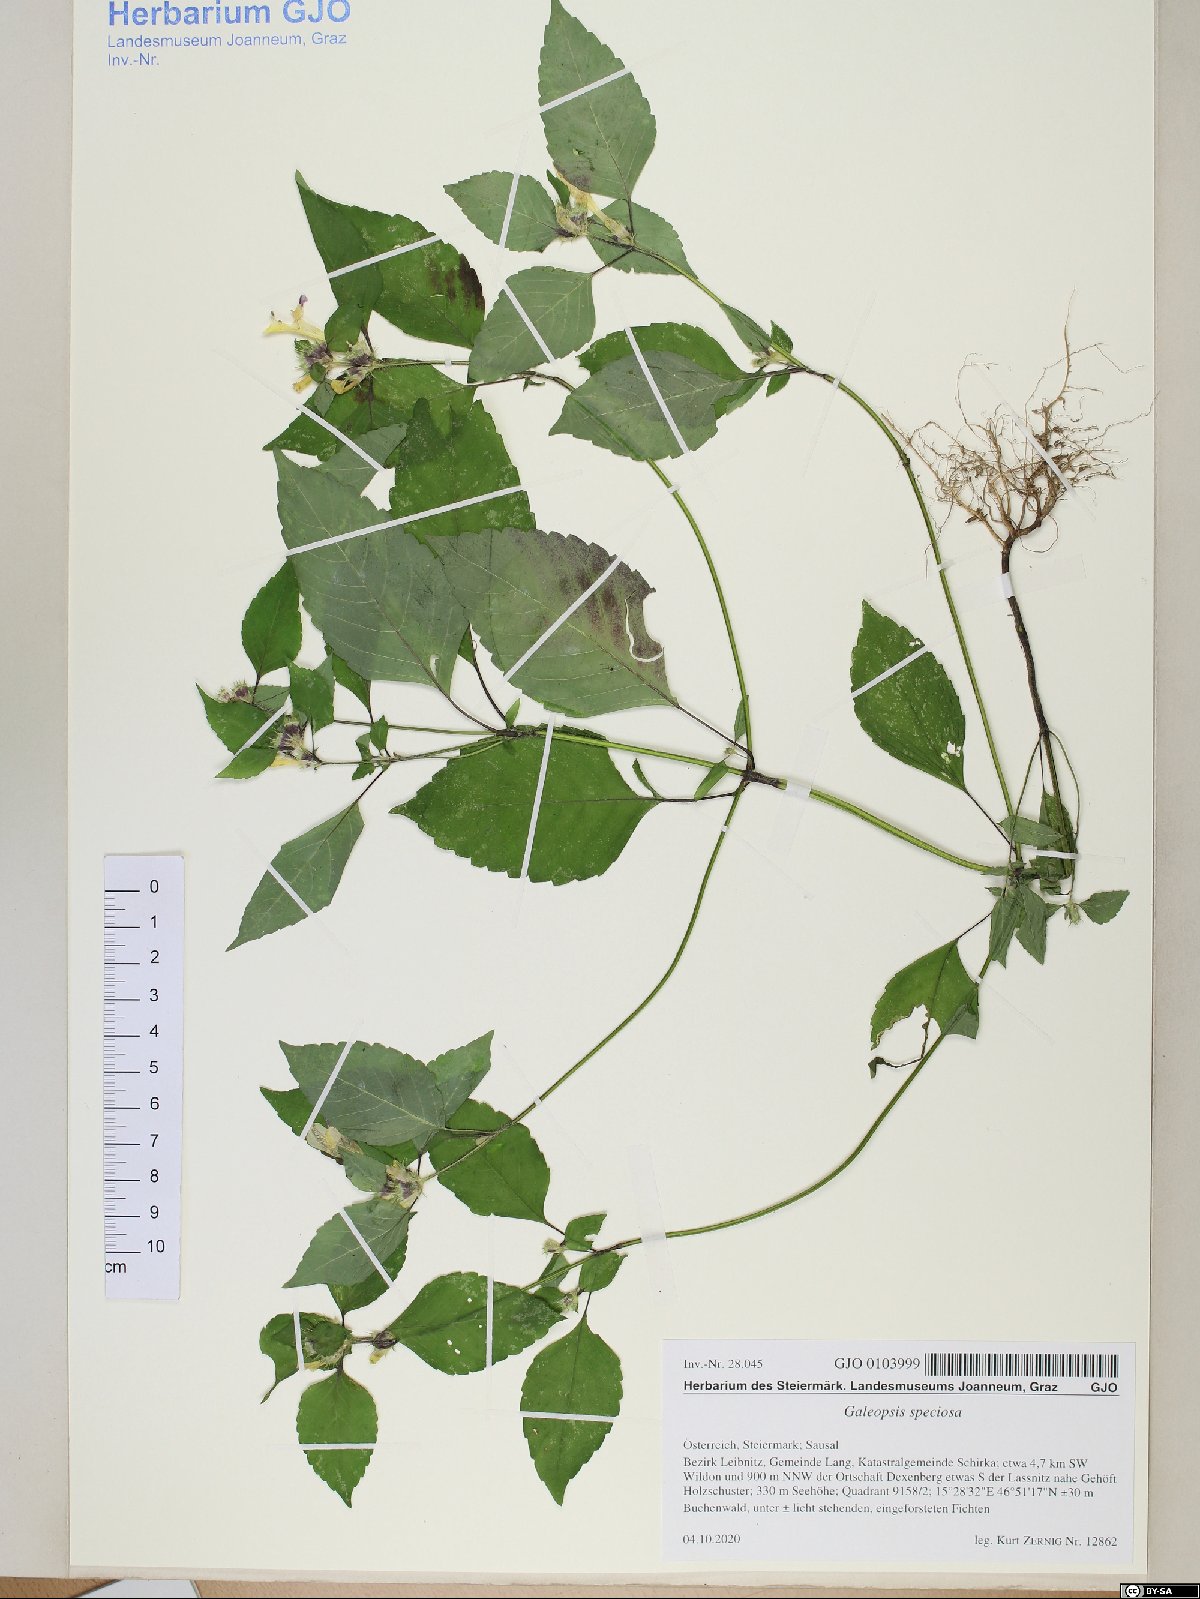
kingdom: Plantae
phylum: Tracheophyta
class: Magnoliopsida
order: Lamiales
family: Lamiaceae
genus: Galeopsis
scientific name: Galeopsis speciosa
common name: Large-flowered hemp-nettle
